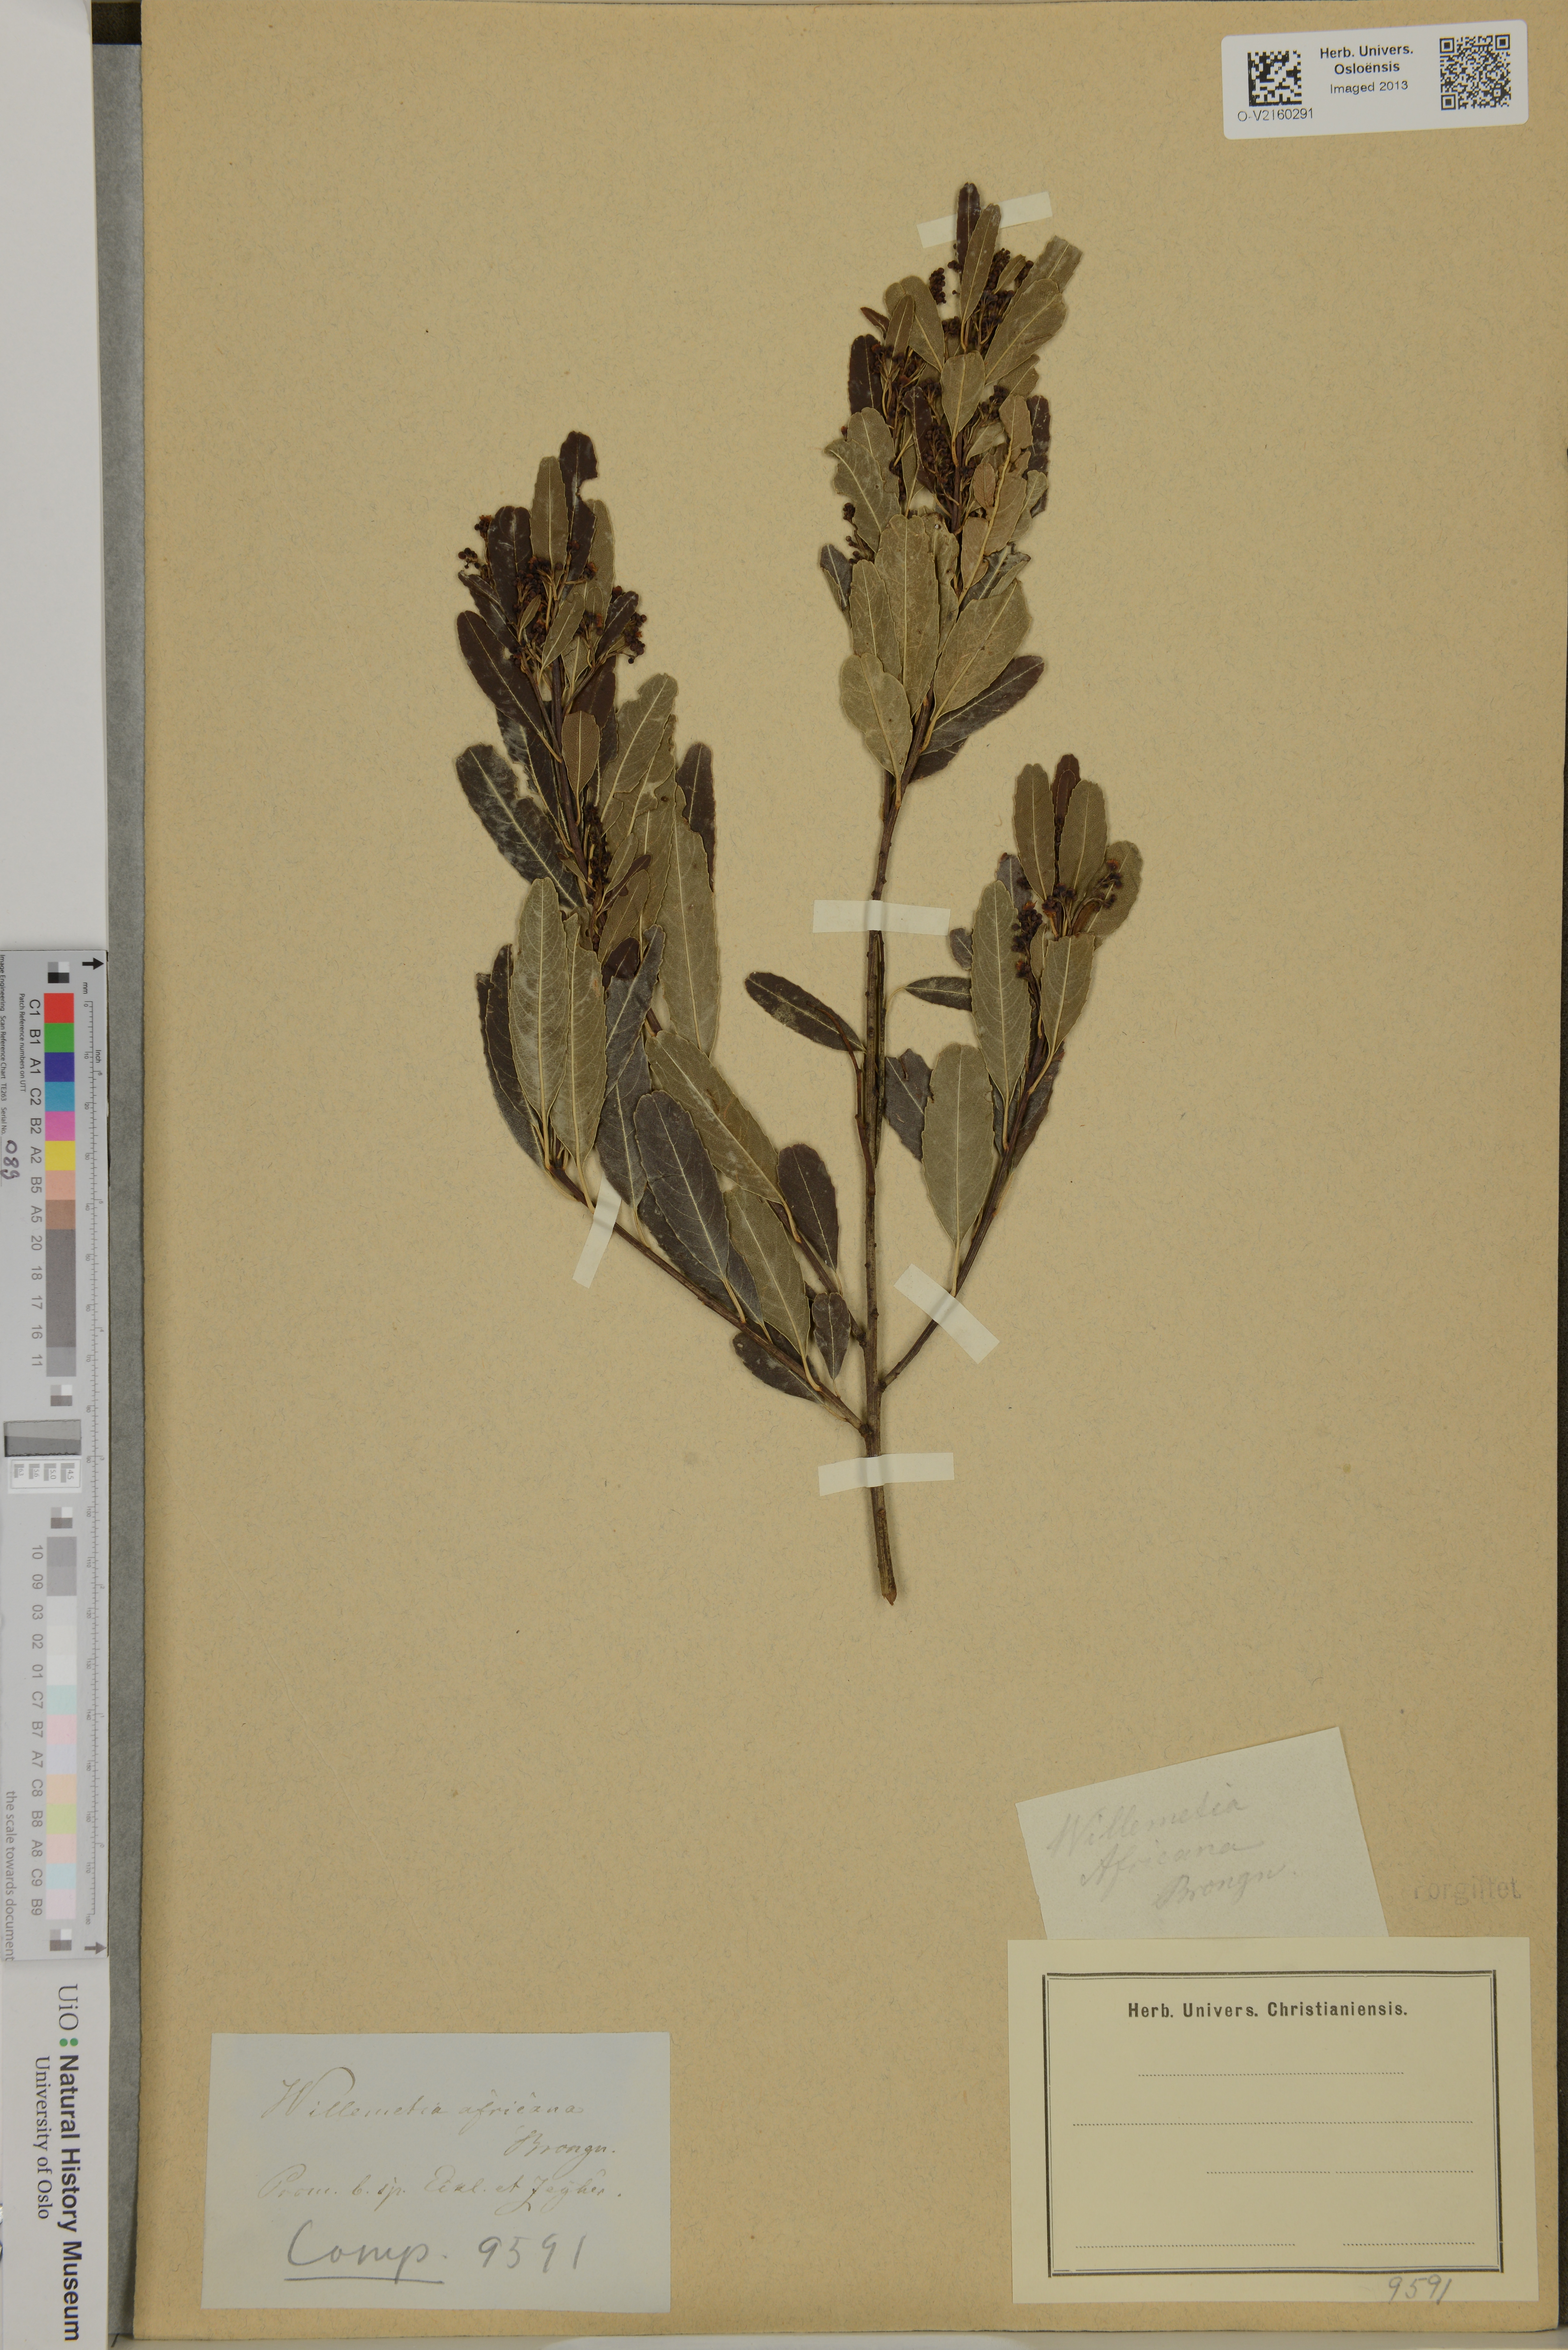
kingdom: Plantae
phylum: Tracheophyta
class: Magnoliopsida
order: Rosales
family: Rhamnaceae
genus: Noltea
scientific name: Noltea africana
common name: Soapbush
